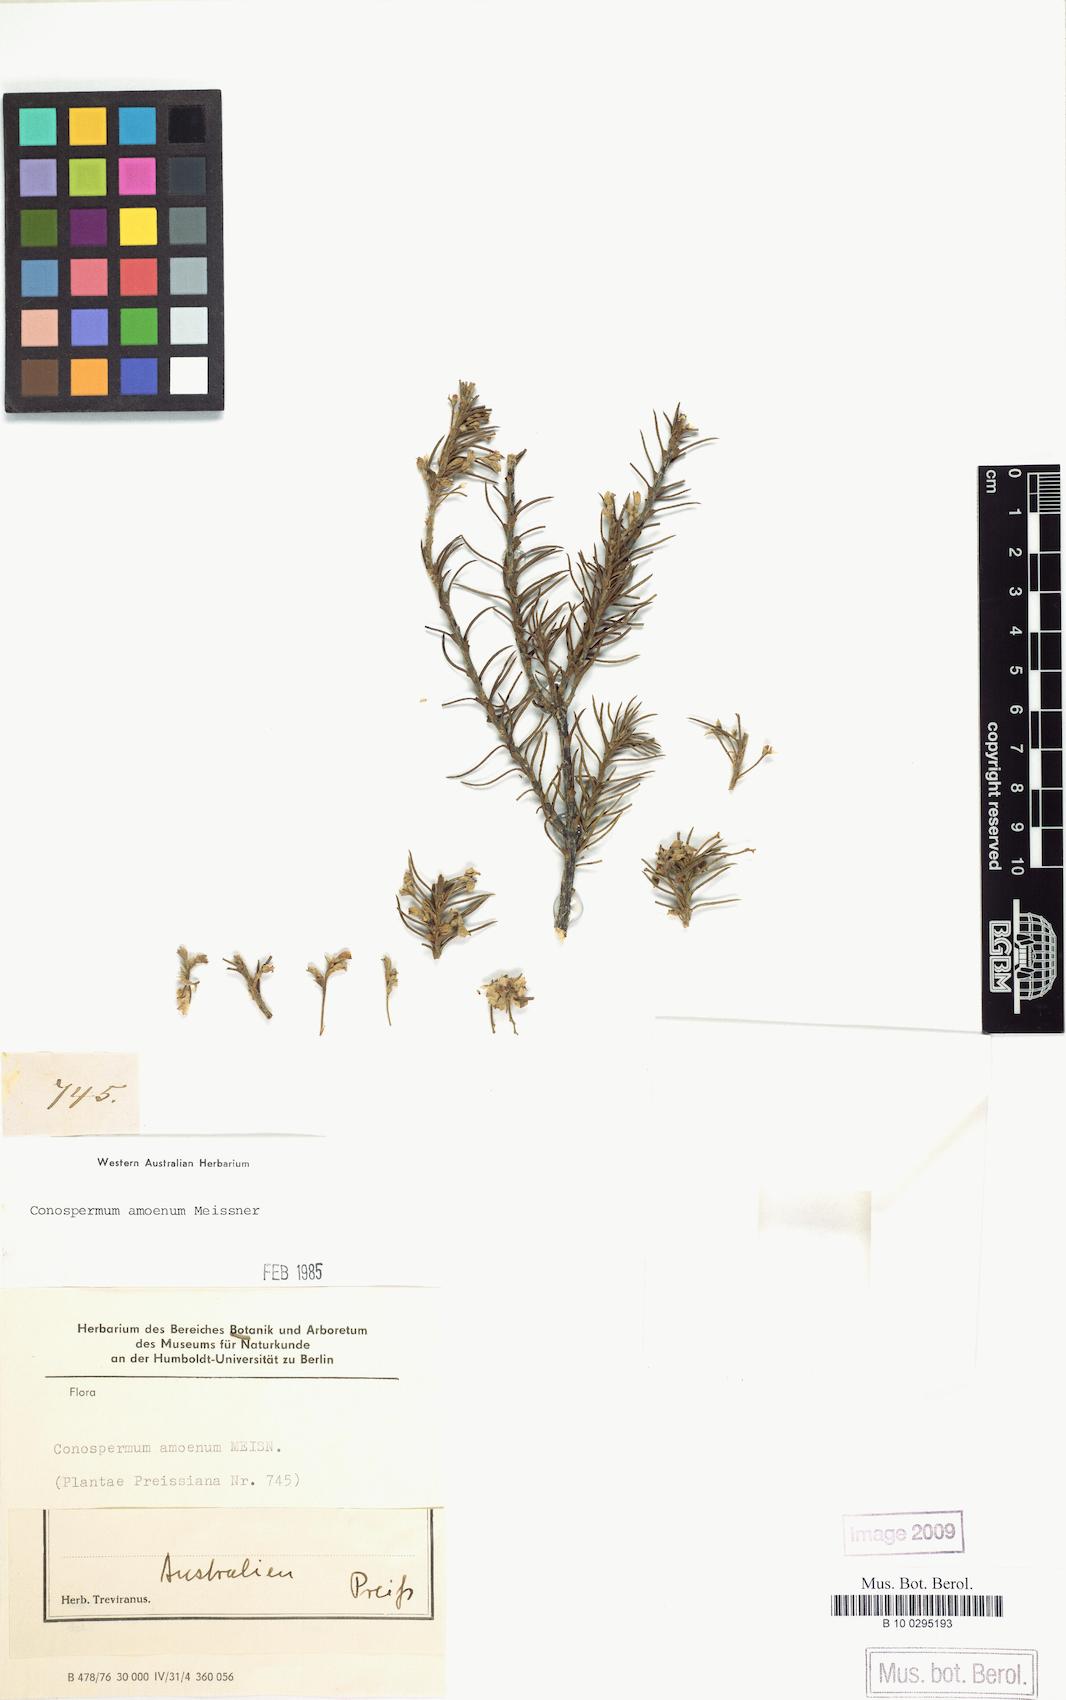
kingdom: Plantae
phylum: Tracheophyta
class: Magnoliopsida
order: Proteales
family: Proteaceae
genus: Conospermum
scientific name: Conospermum amoenum
